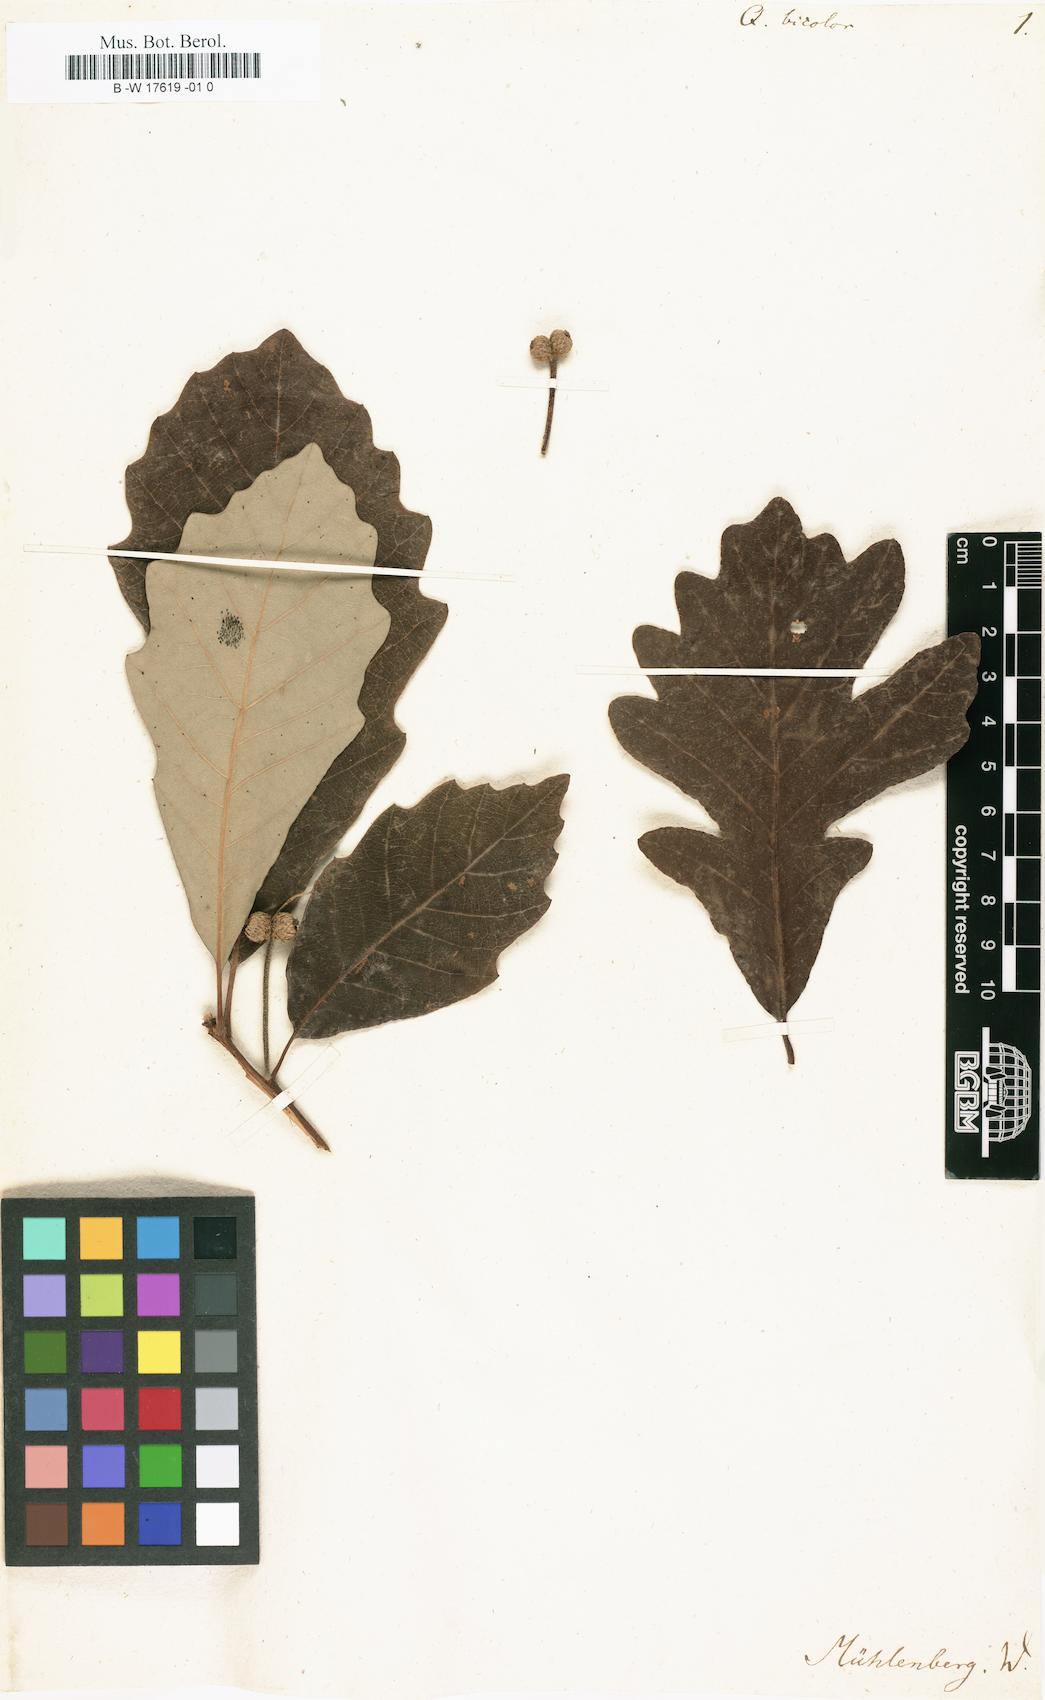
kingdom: Plantae
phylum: Tracheophyta
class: Magnoliopsida
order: Fagales
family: Fagaceae
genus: Quercus
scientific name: Quercus bicolor
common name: Swamp white oak
